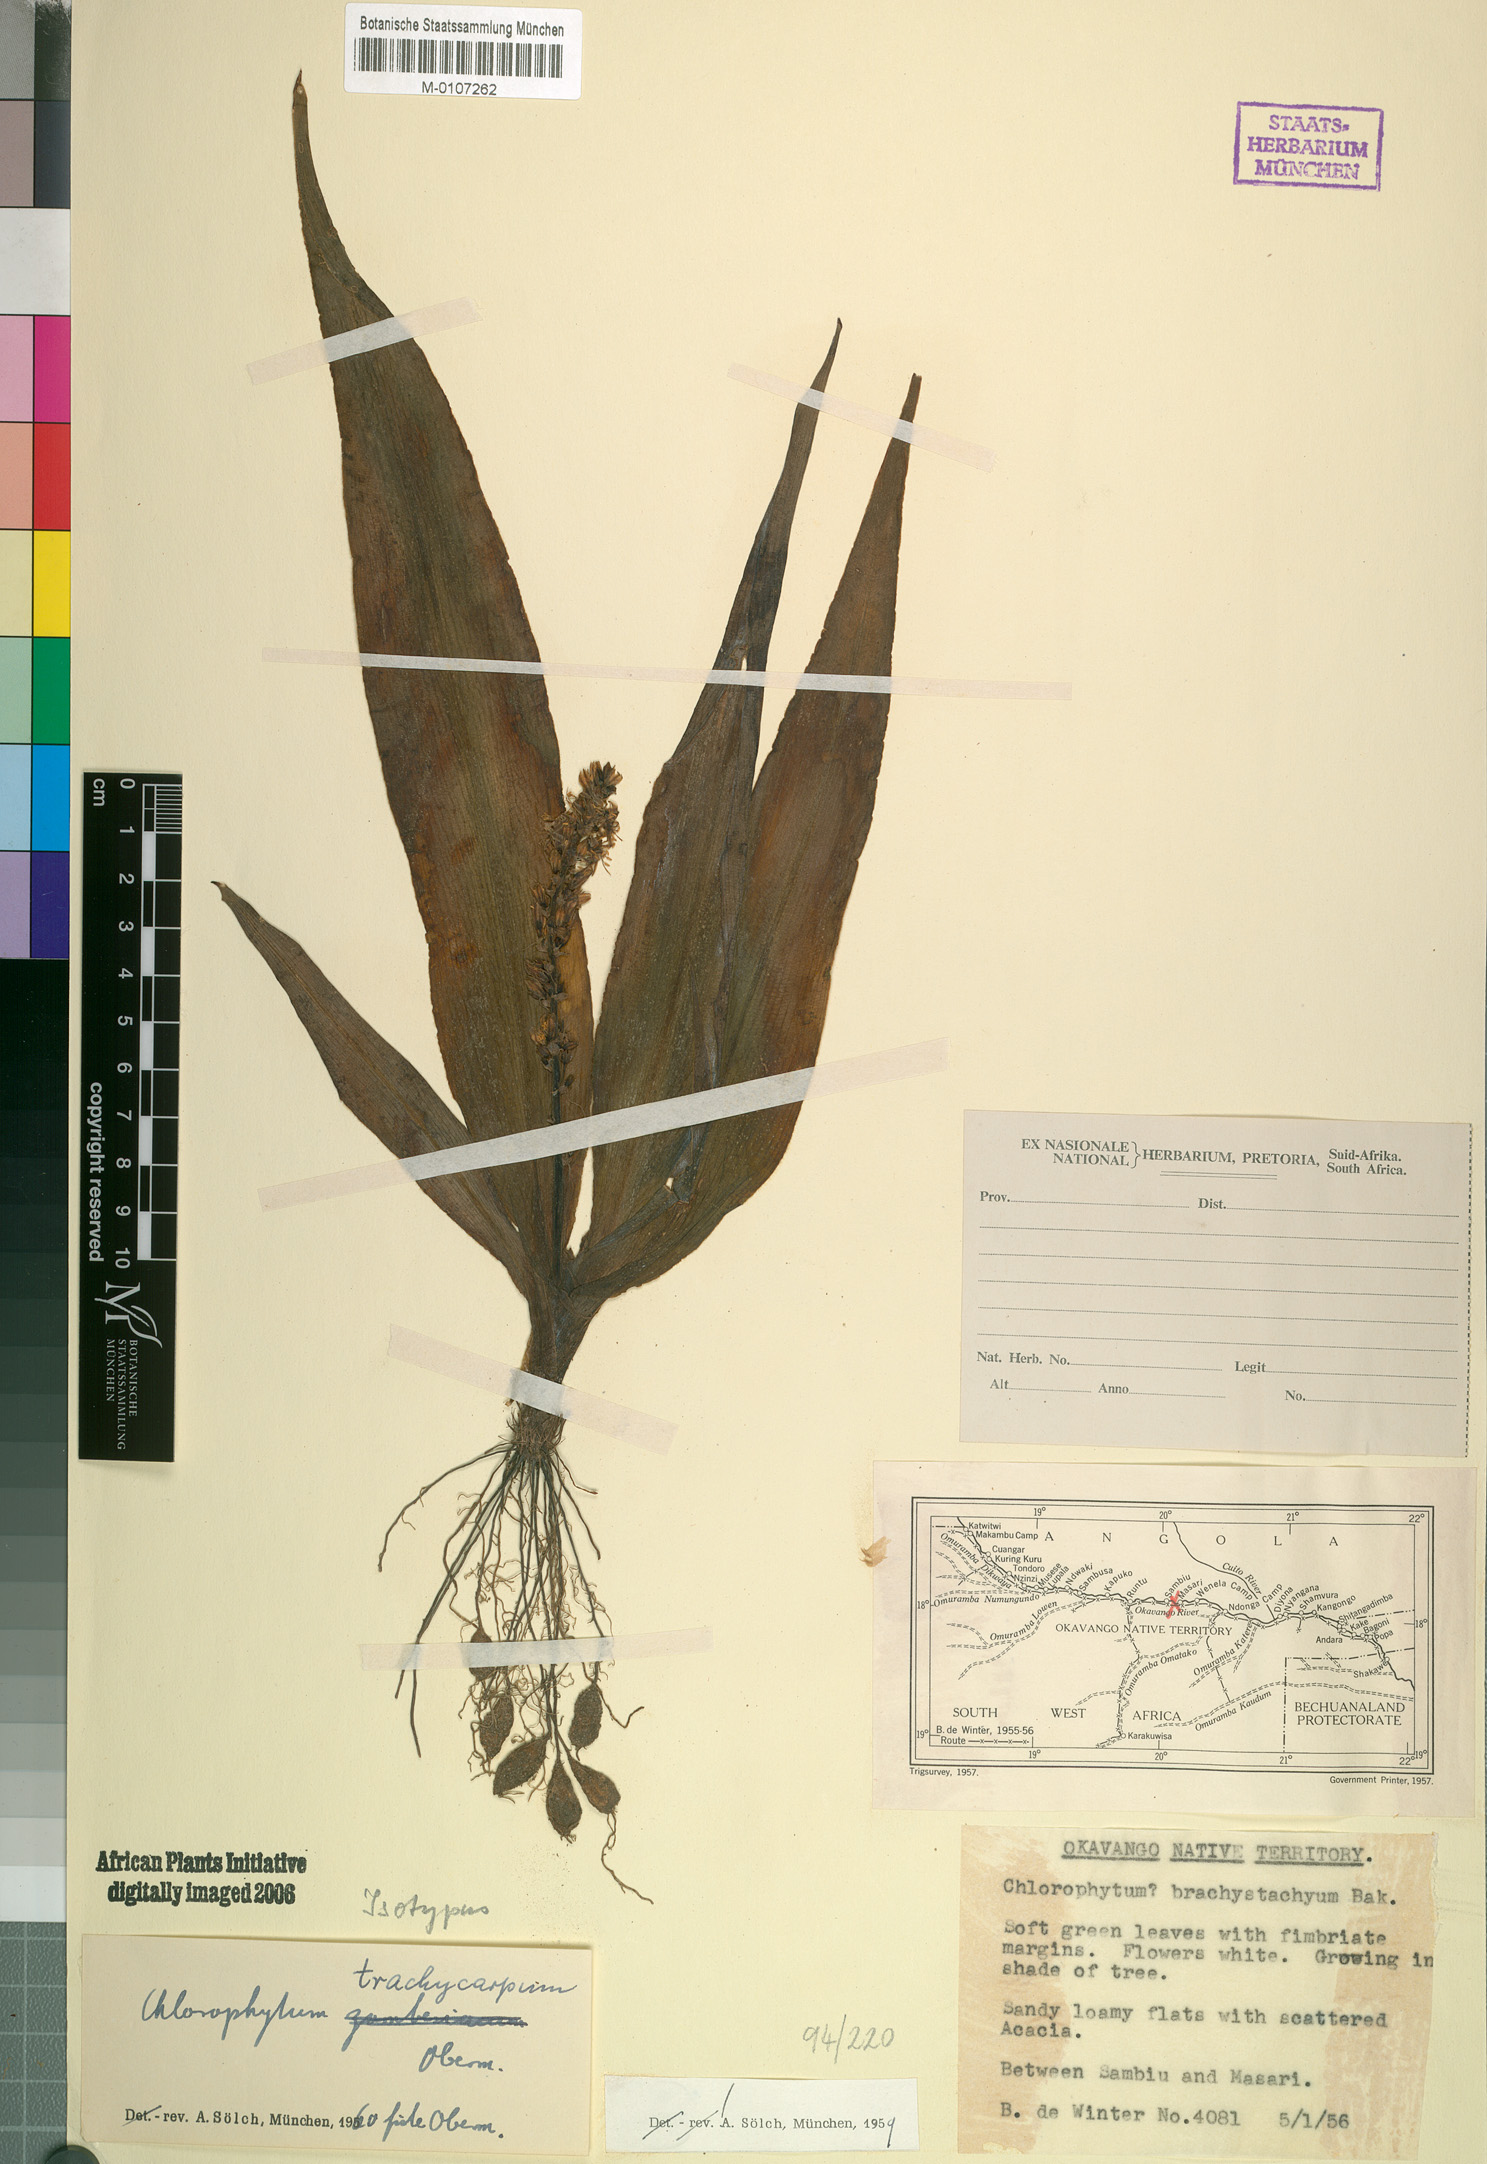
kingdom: Plantae
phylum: Tracheophyta
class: Liliopsida
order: Asparagales
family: Asparagaceae
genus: Chlorophytum
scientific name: Chlorophytum brachystachyum
